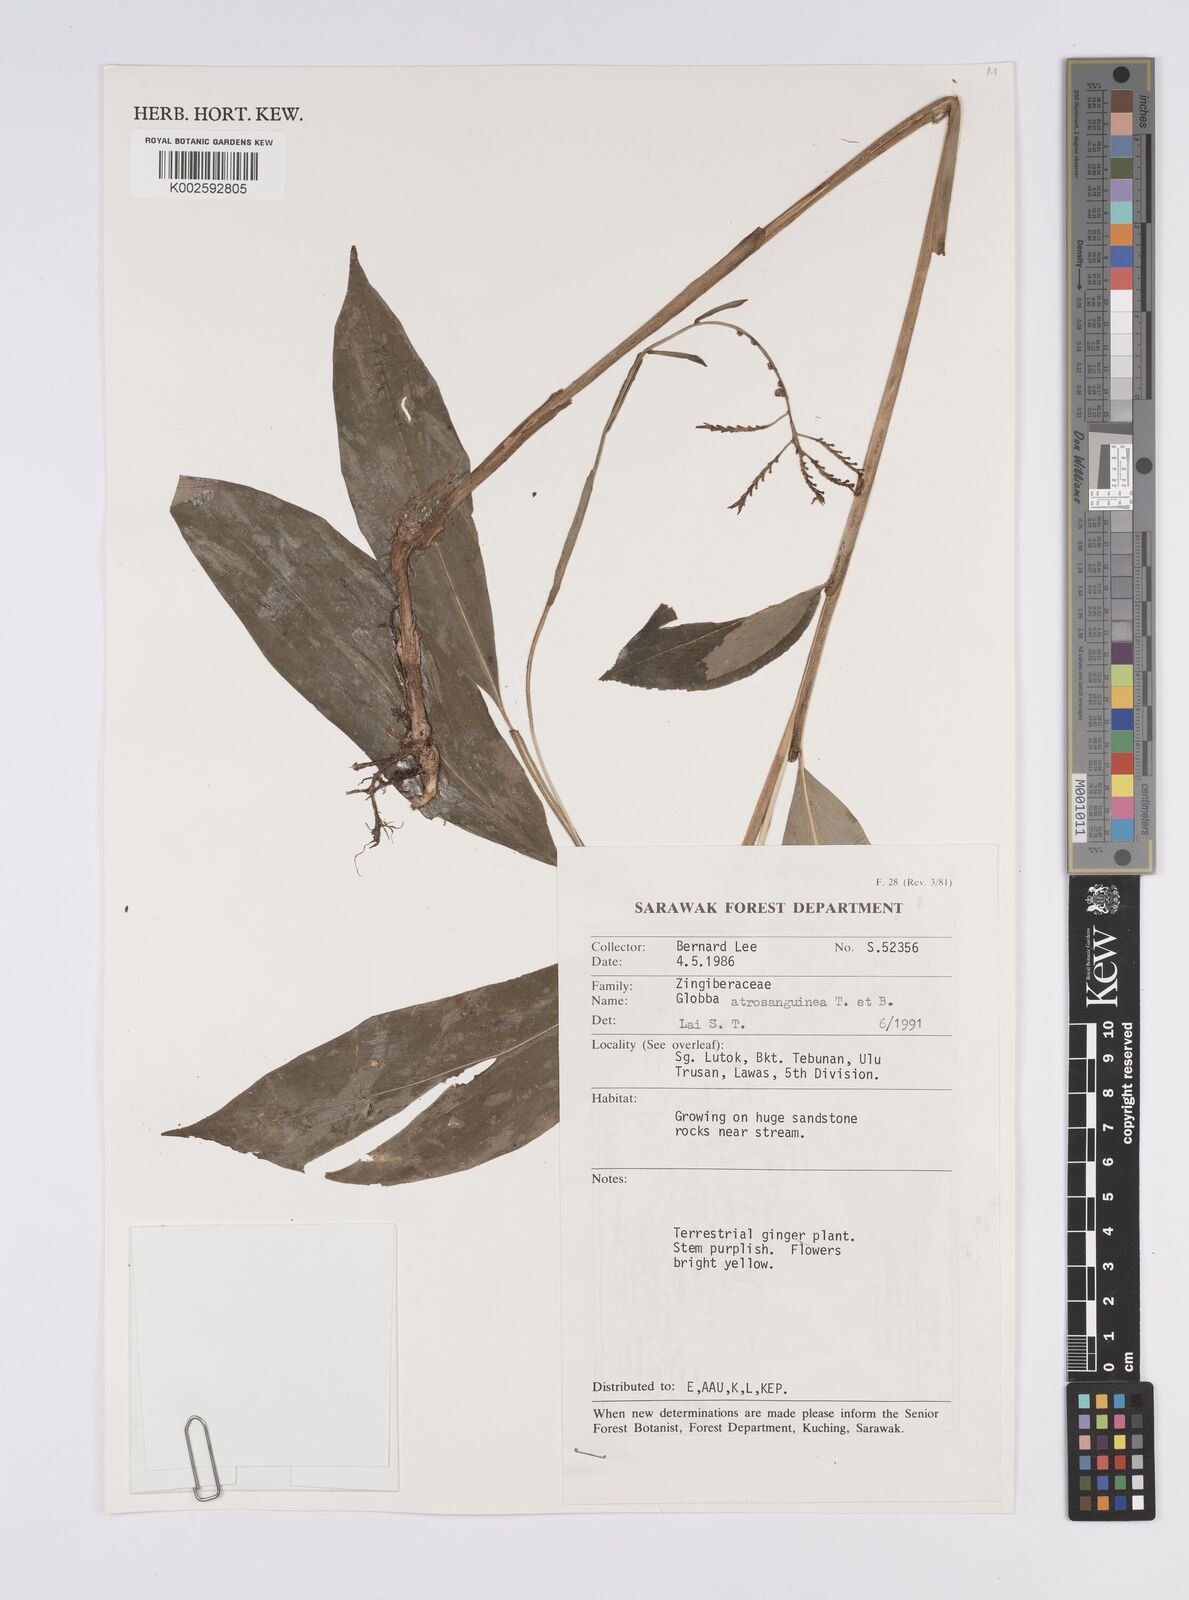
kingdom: Plantae
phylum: Tracheophyta
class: Liliopsida
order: Zingiberales
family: Zingiberaceae
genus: Globba
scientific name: Globba atrosanguinea
